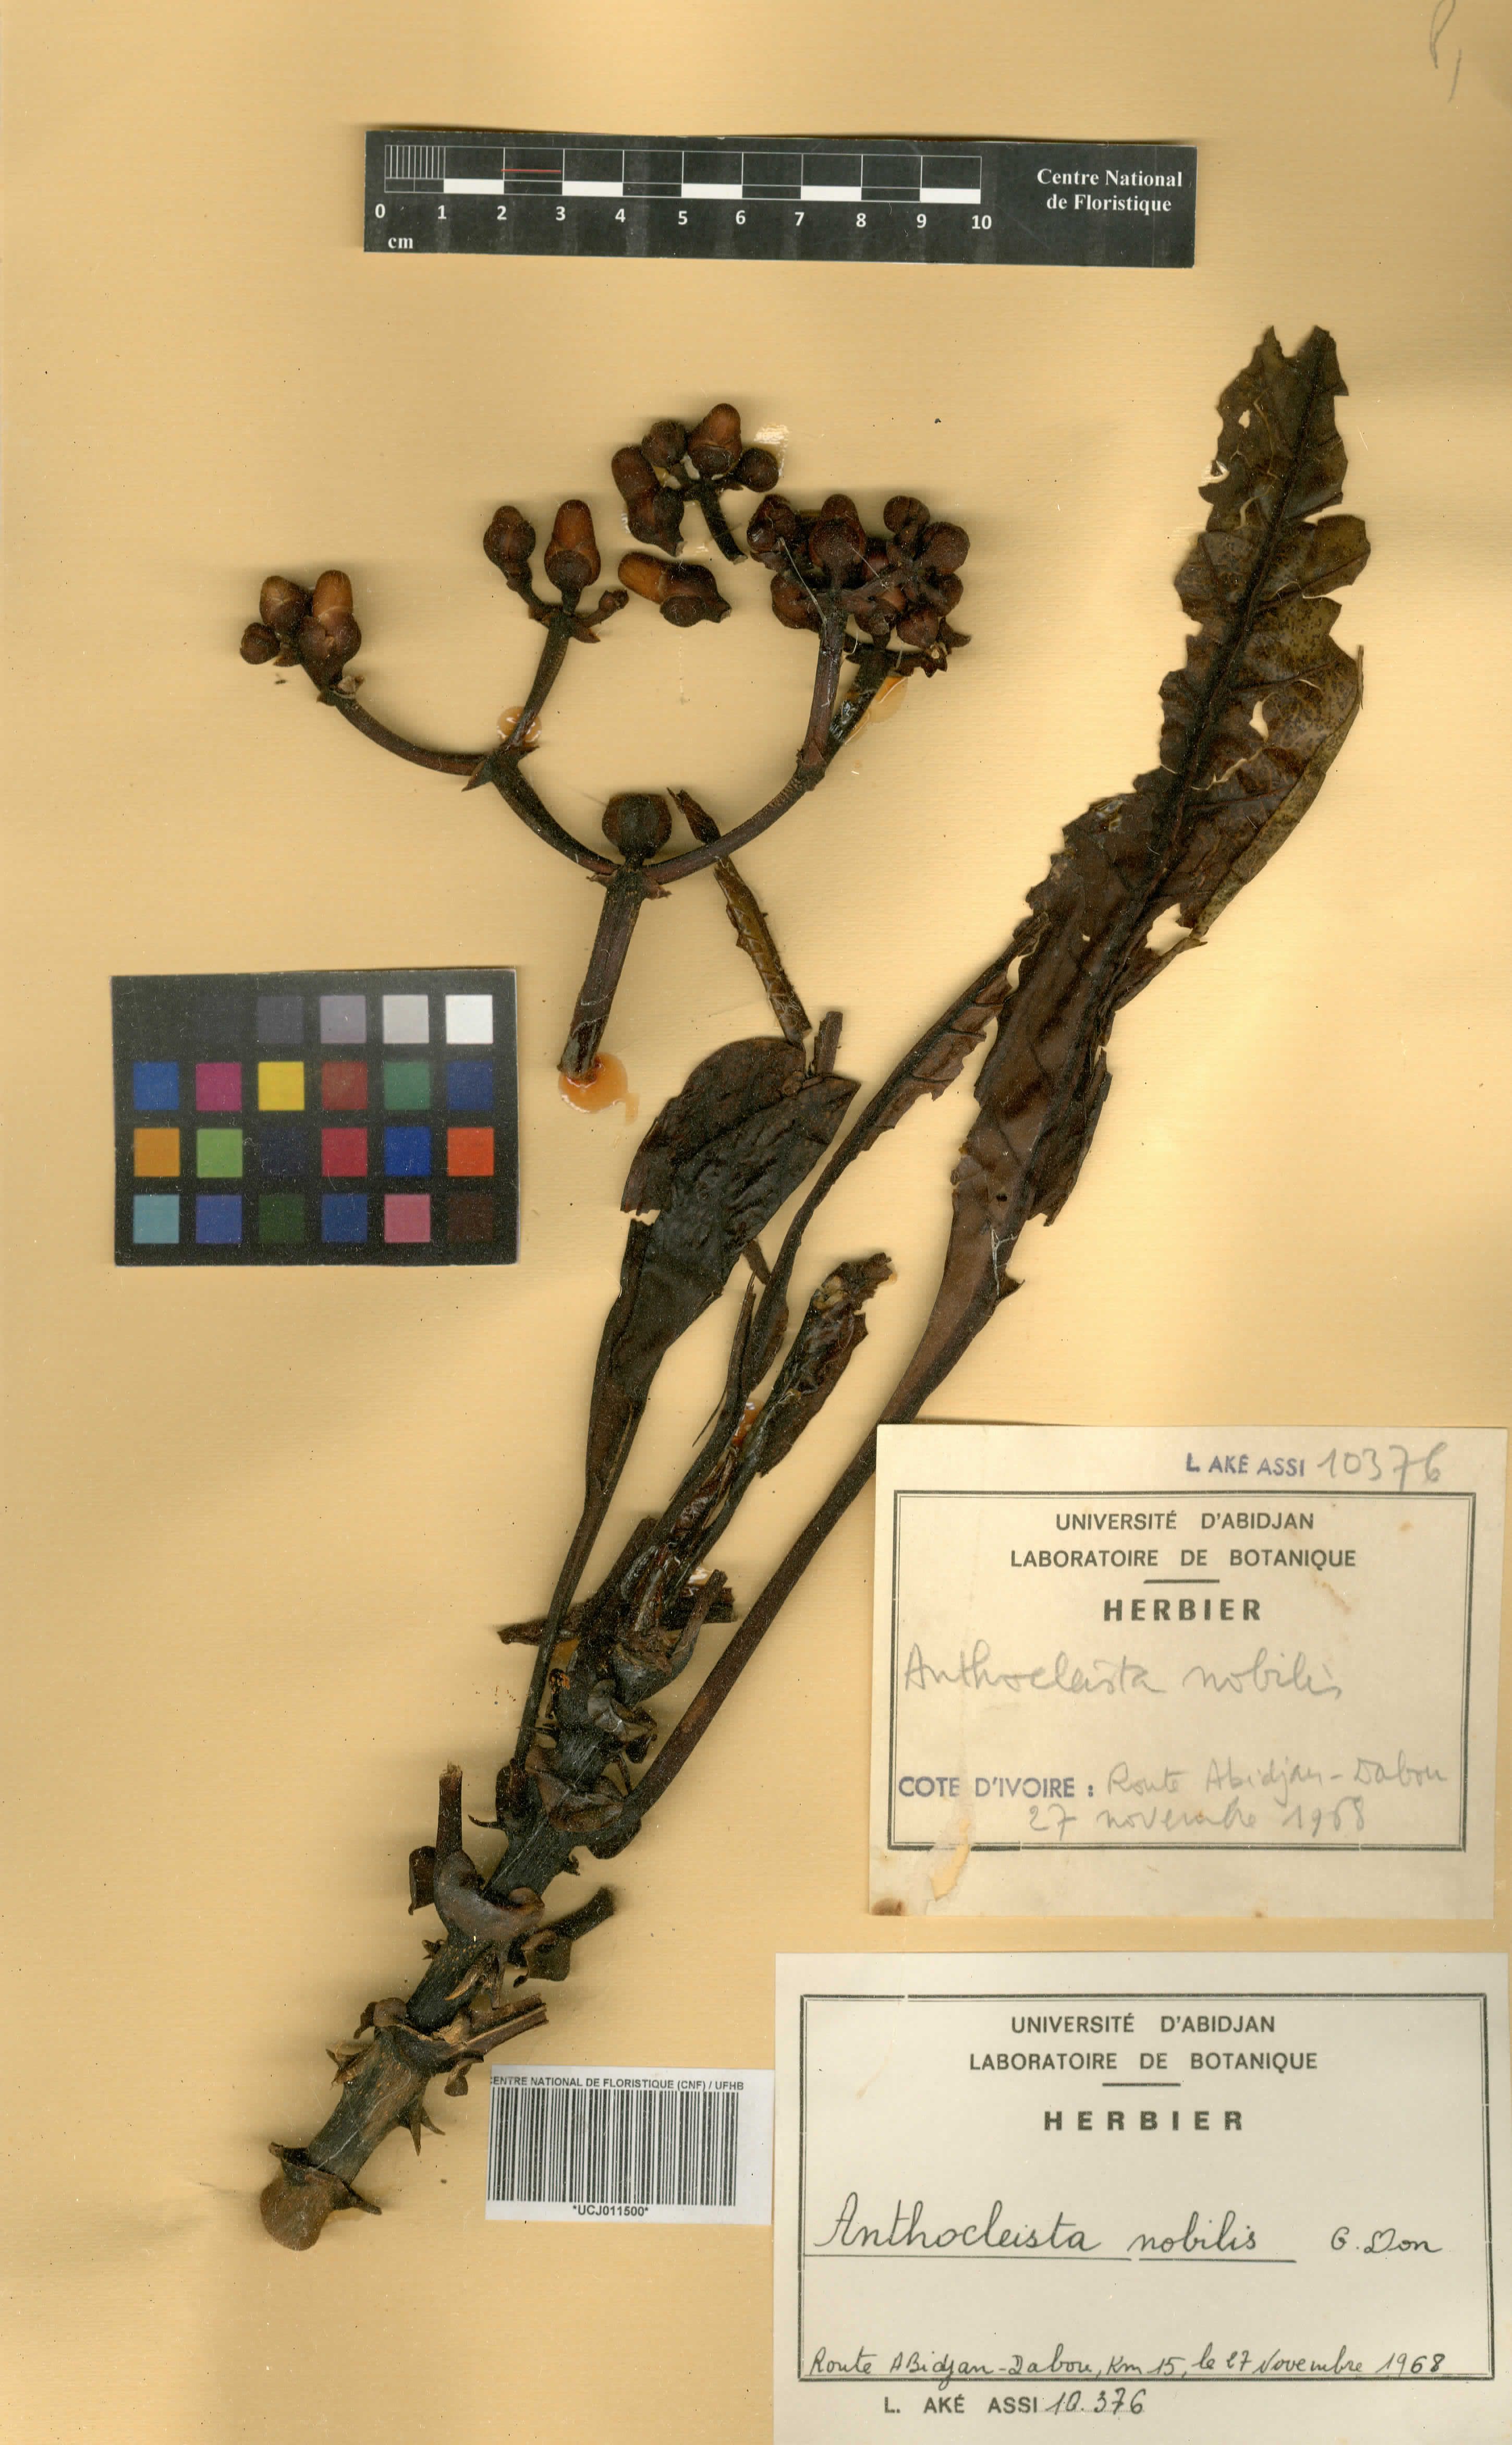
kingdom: Plantae
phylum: Tracheophyta
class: Magnoliopsida
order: Gentianales
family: Gentianaceae
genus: Anthocleista
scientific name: Anthocleista nobilis
